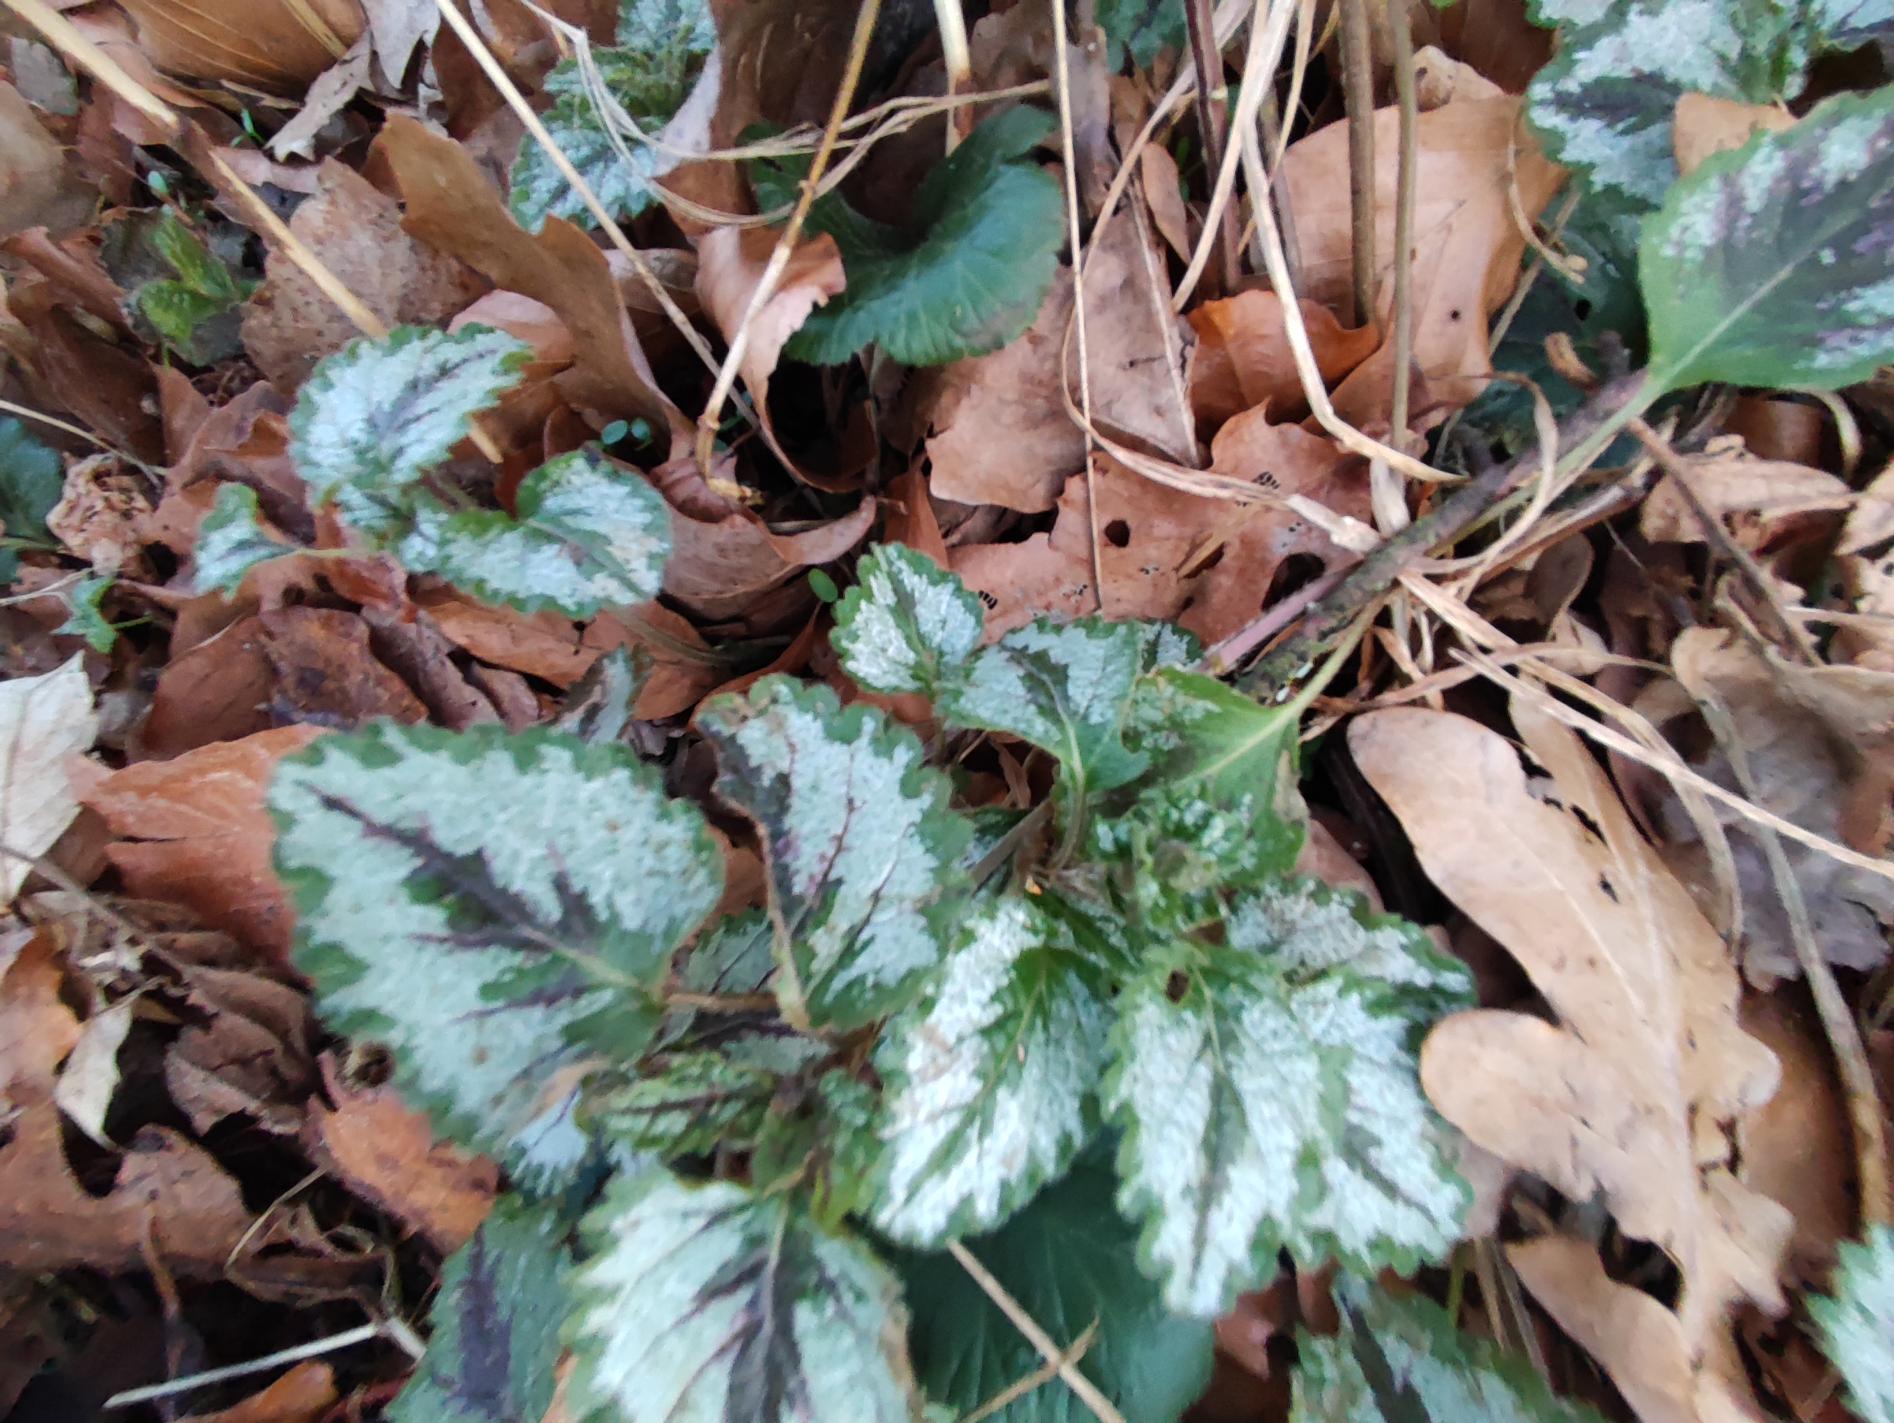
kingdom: Plantae
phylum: Tracheophyta
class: Magnoliopsida
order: Lamiales
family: Lamiaceae
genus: Lamium
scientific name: Lamium galeobdolon
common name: Have-guldnælde
